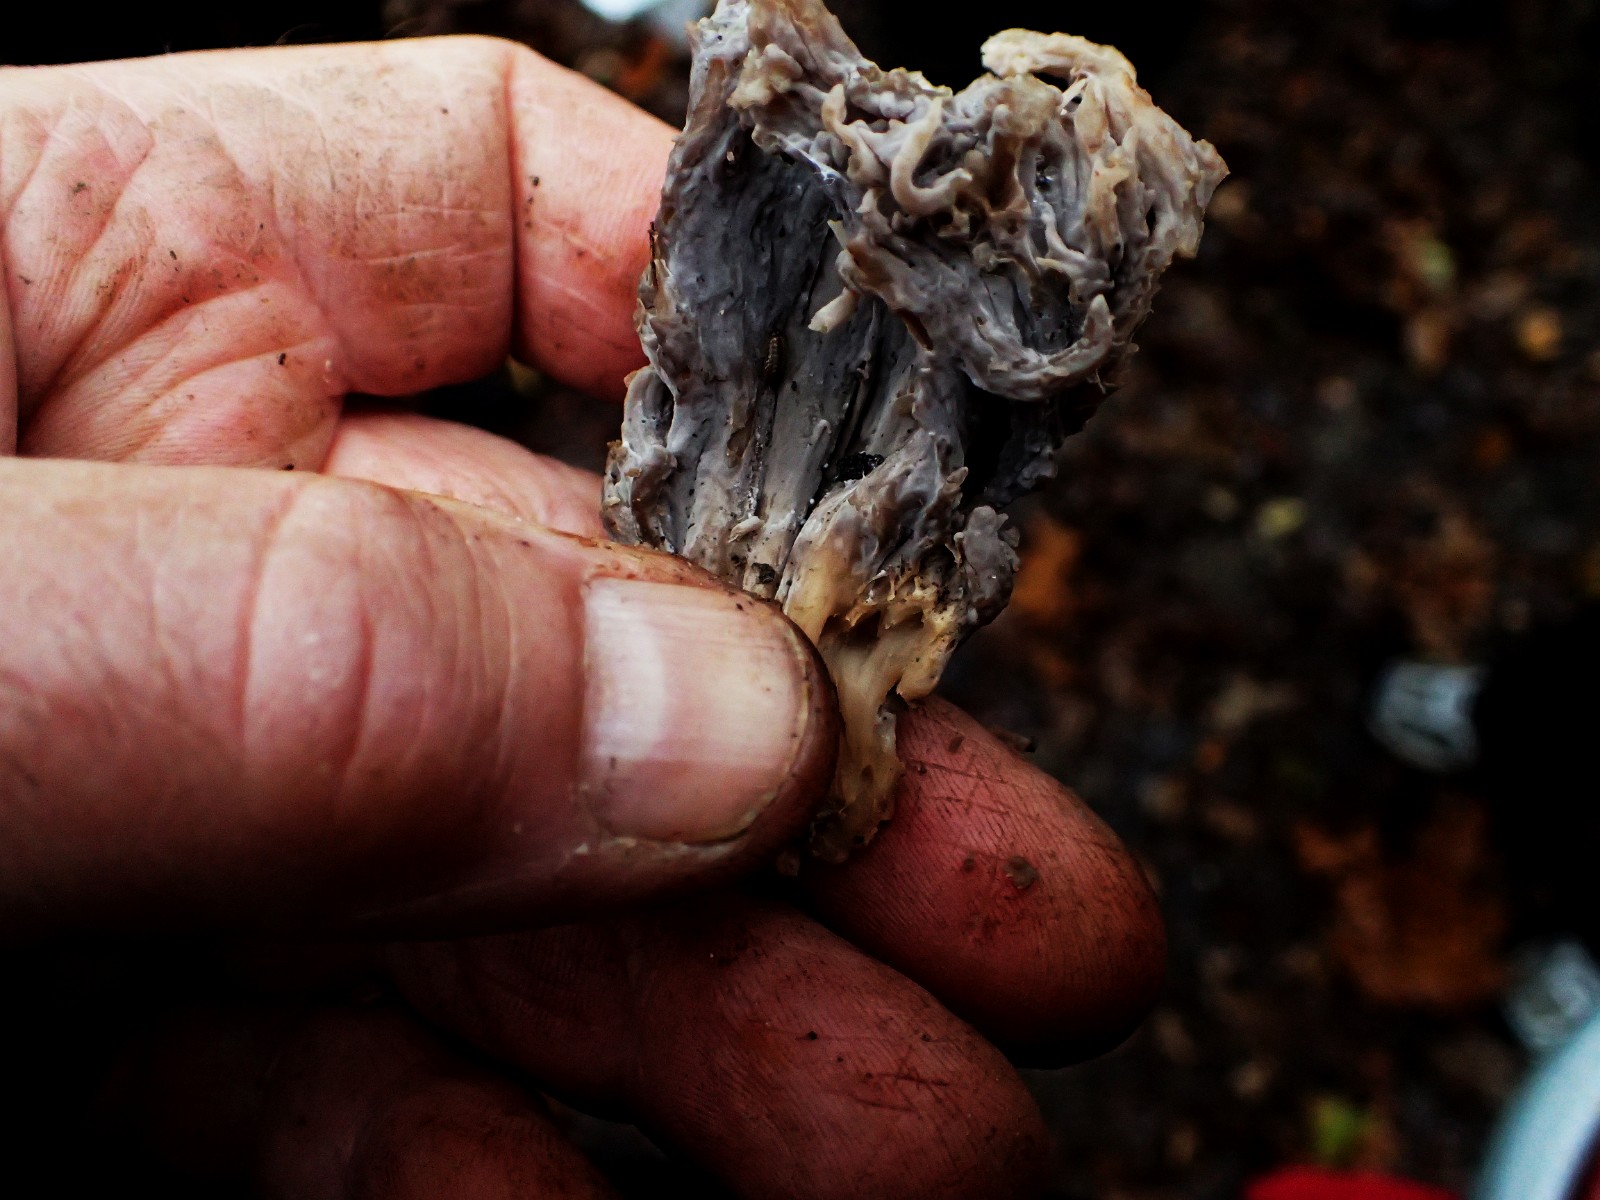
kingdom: Fungi
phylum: Ascomycota
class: Sordariomycetes
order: Sordariales
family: Helminthosphaeriaceae
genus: Helminthosphaeria
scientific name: Helminthosphaeria clavariarum
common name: trold-svampesnyltekerne
